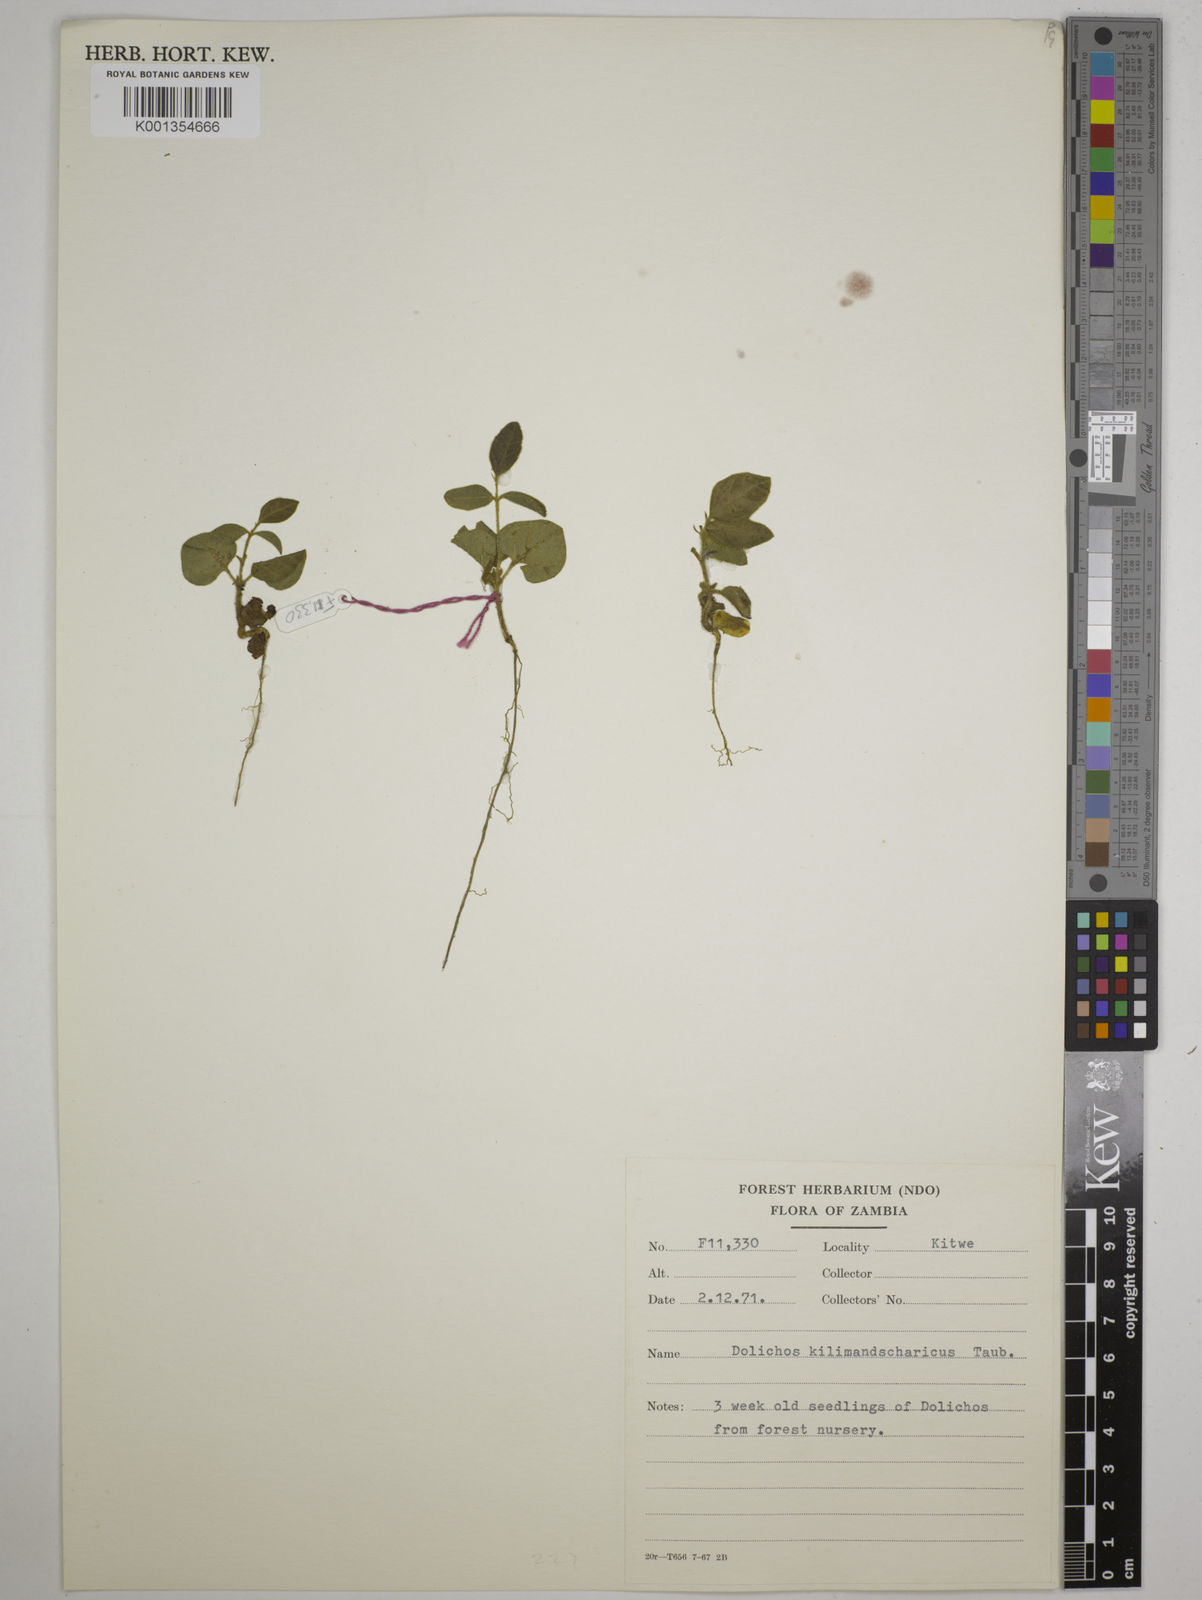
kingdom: Plantae
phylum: Tracheophyta
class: Magnoliopsida
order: Fabales
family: Fabaceae
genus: Dolichos
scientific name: Dolichos kilimandscharicus
